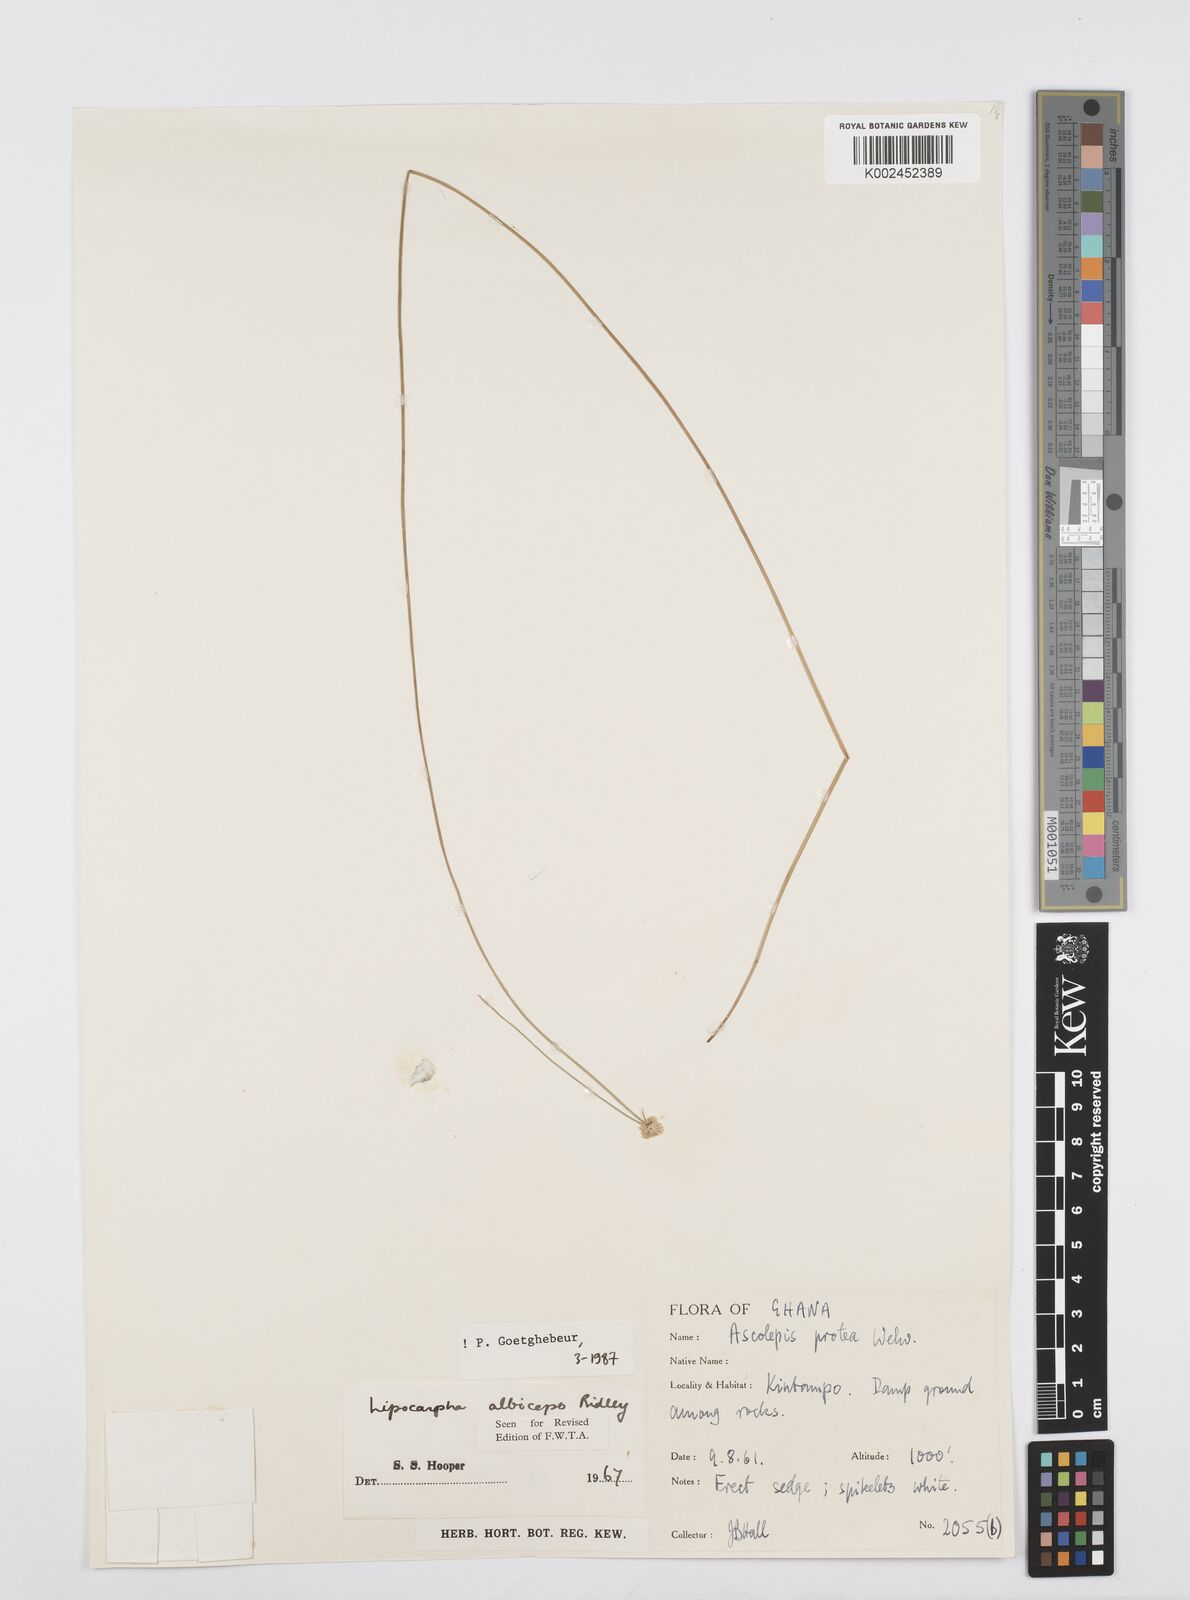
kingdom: Plantae
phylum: Tracheophyta
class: Liliopsida
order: Poales
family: Cyperaceae
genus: Cyperus
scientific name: Cyperus albiceps
